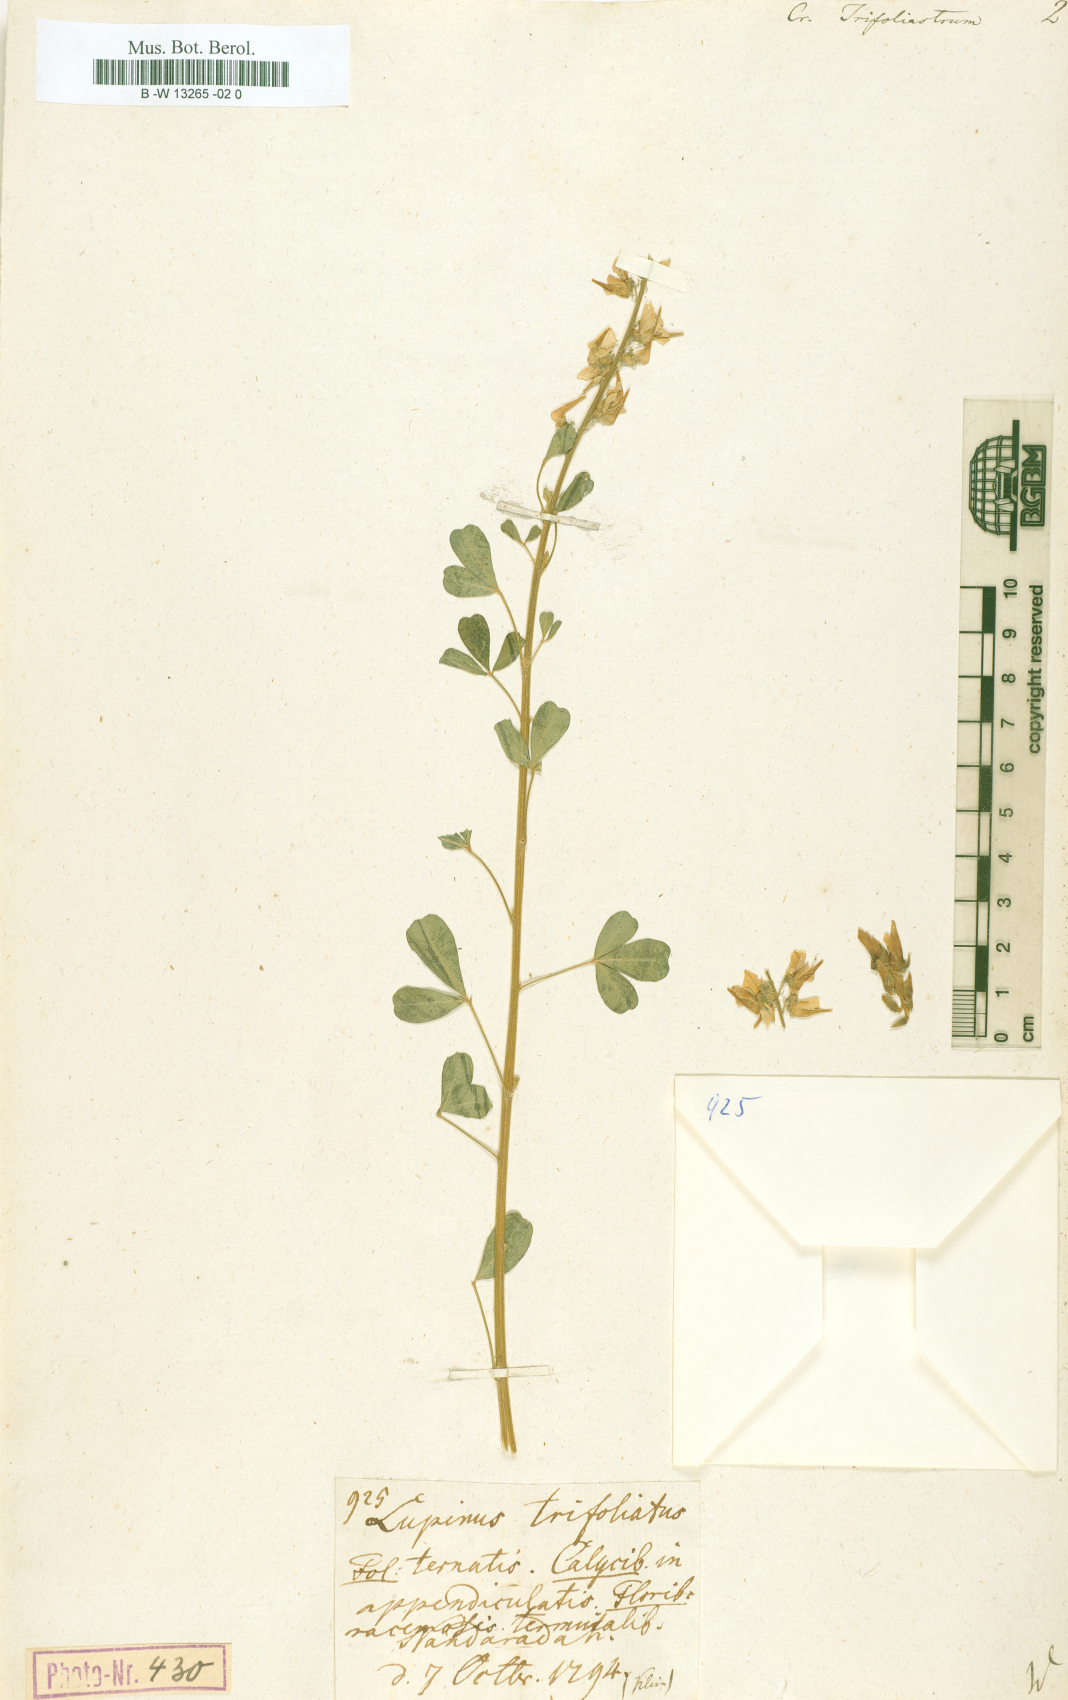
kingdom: Plantae
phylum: Tracheophyta
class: Magnoliopsida
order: Fabales
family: Fabaceae
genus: Crotalaria
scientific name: Crotalaria trifoliastrum
